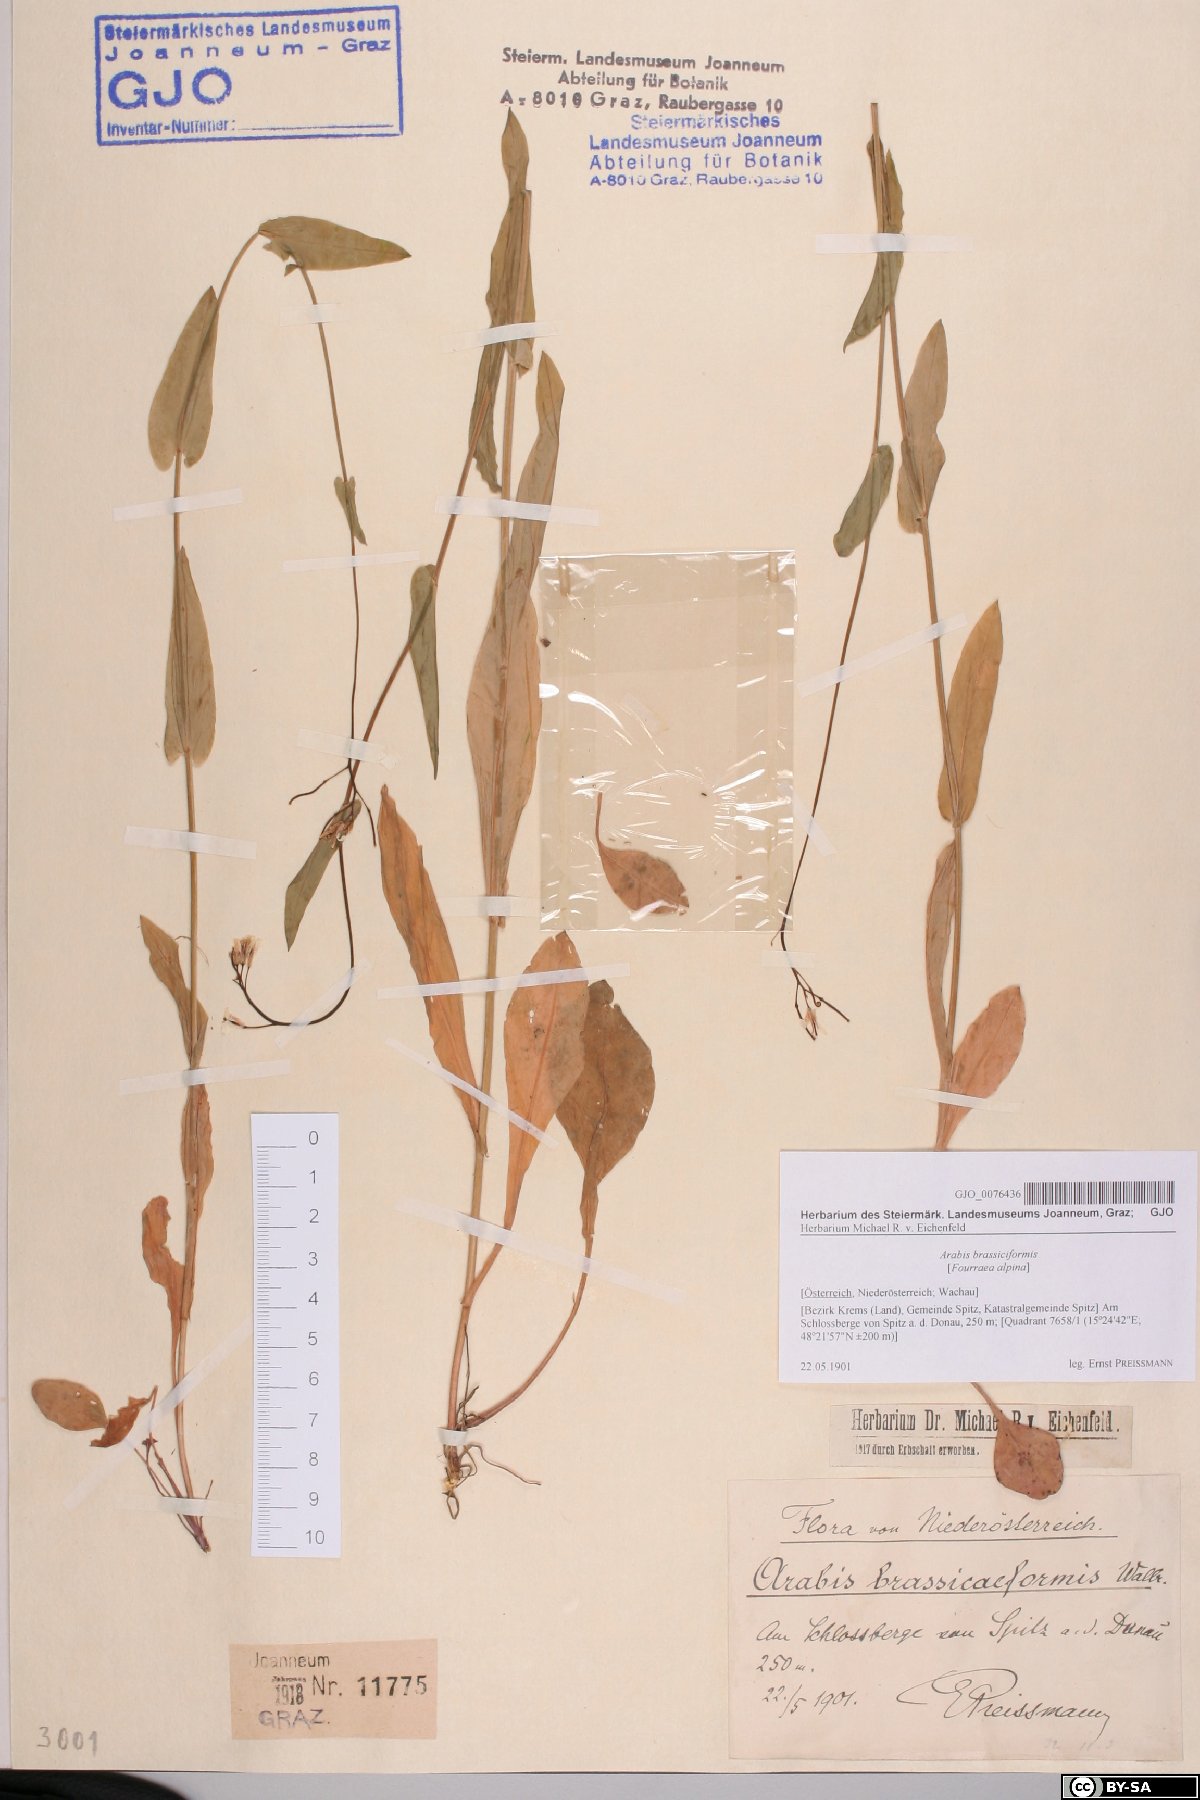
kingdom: Plantae
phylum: Tracheophyta
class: Magnoliopsida
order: Brassicales
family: Brassicaceae
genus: Fourraea
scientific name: Fourraea alpina
